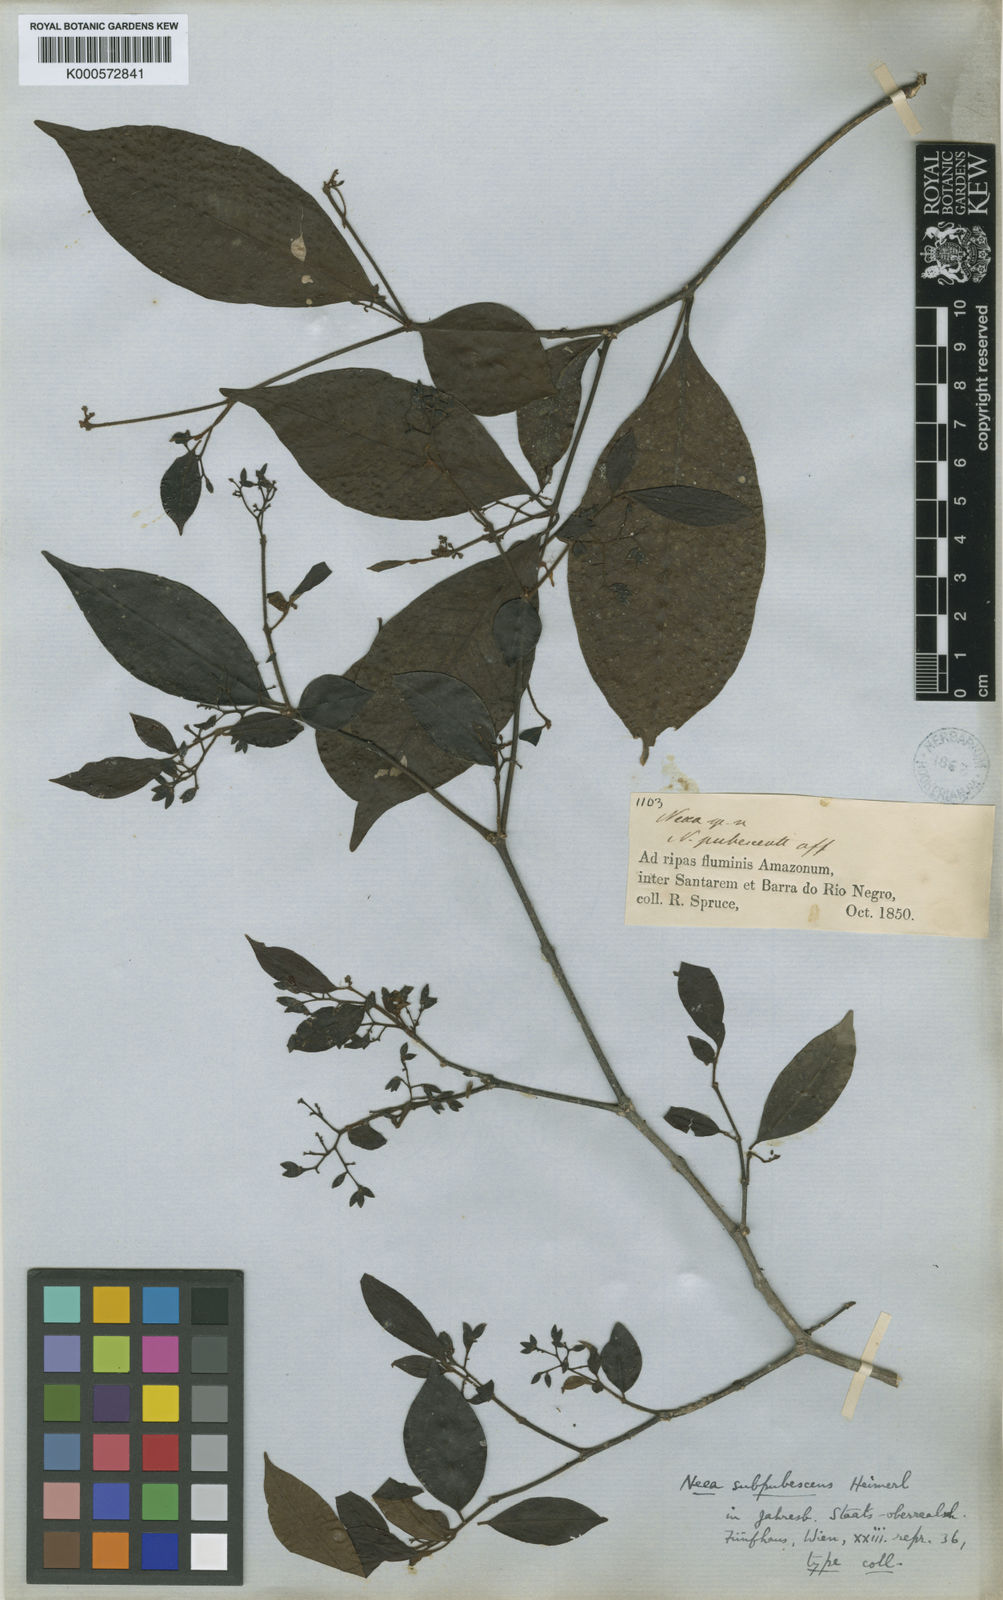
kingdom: Plantae
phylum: Tracheophyta
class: Magnoliopsida
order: Caryophyllales
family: Nyctaginaceae
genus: Neea
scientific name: Neea subpubescens
